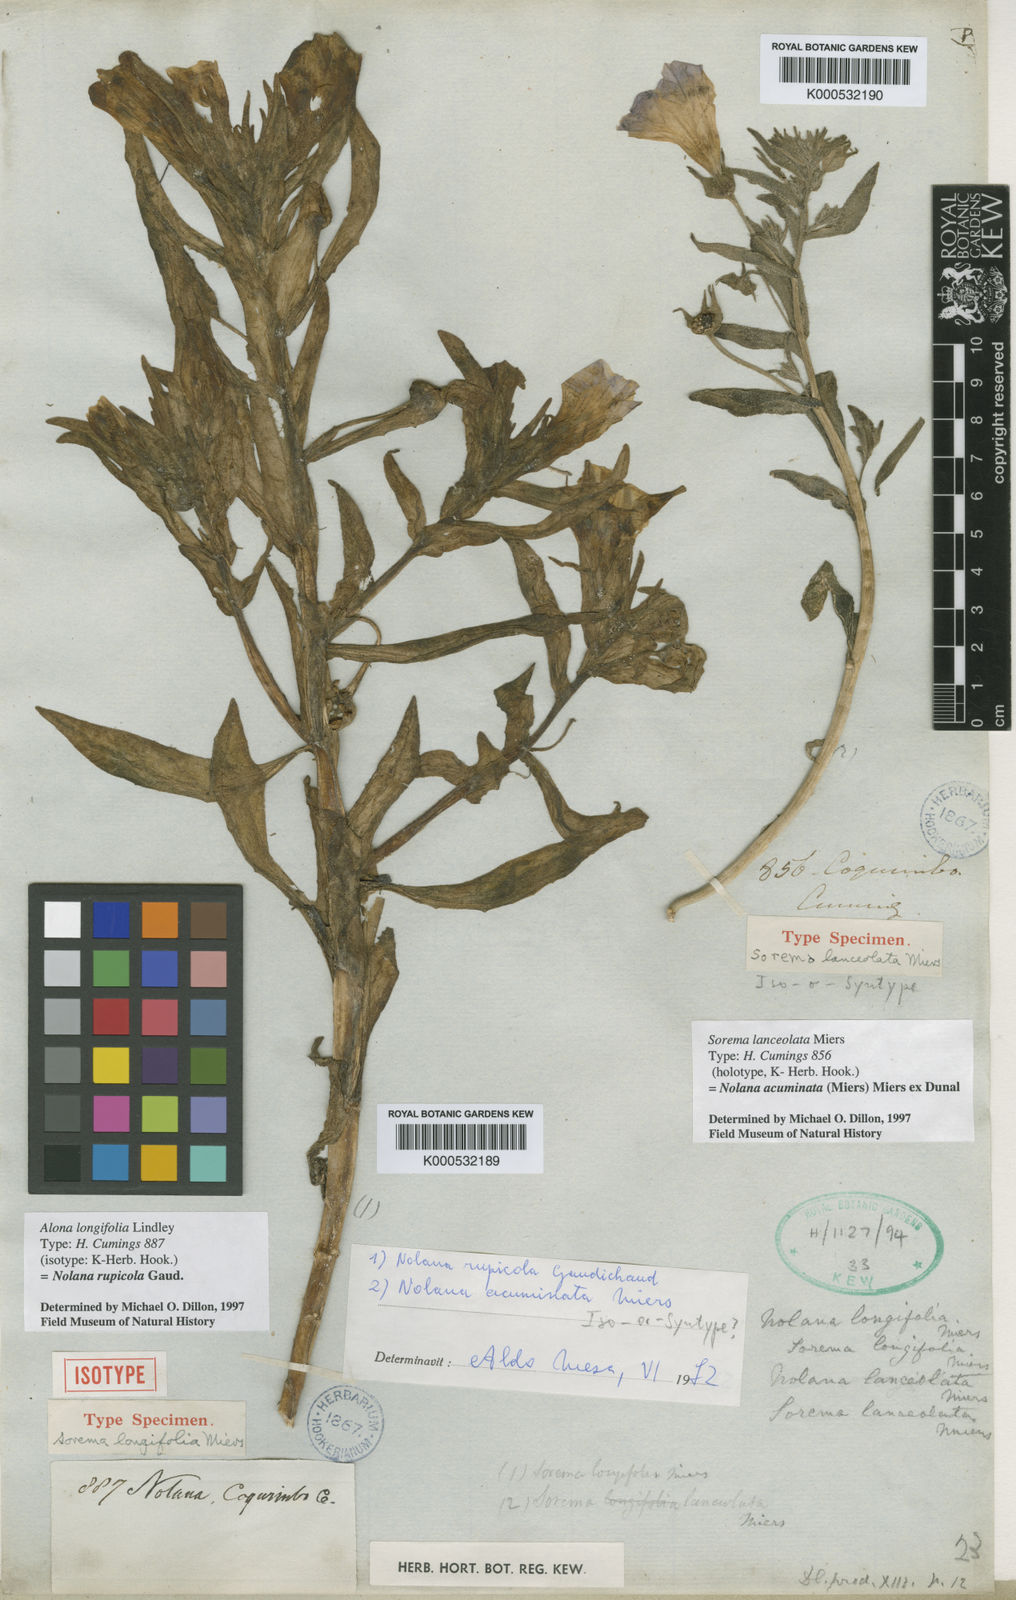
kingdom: Plantae
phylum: Tracheophyta
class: Magnoliopsida
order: Solanales
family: Solanaceae
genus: Nolana
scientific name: Nolana paradoxa
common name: Chilean-bellflower
